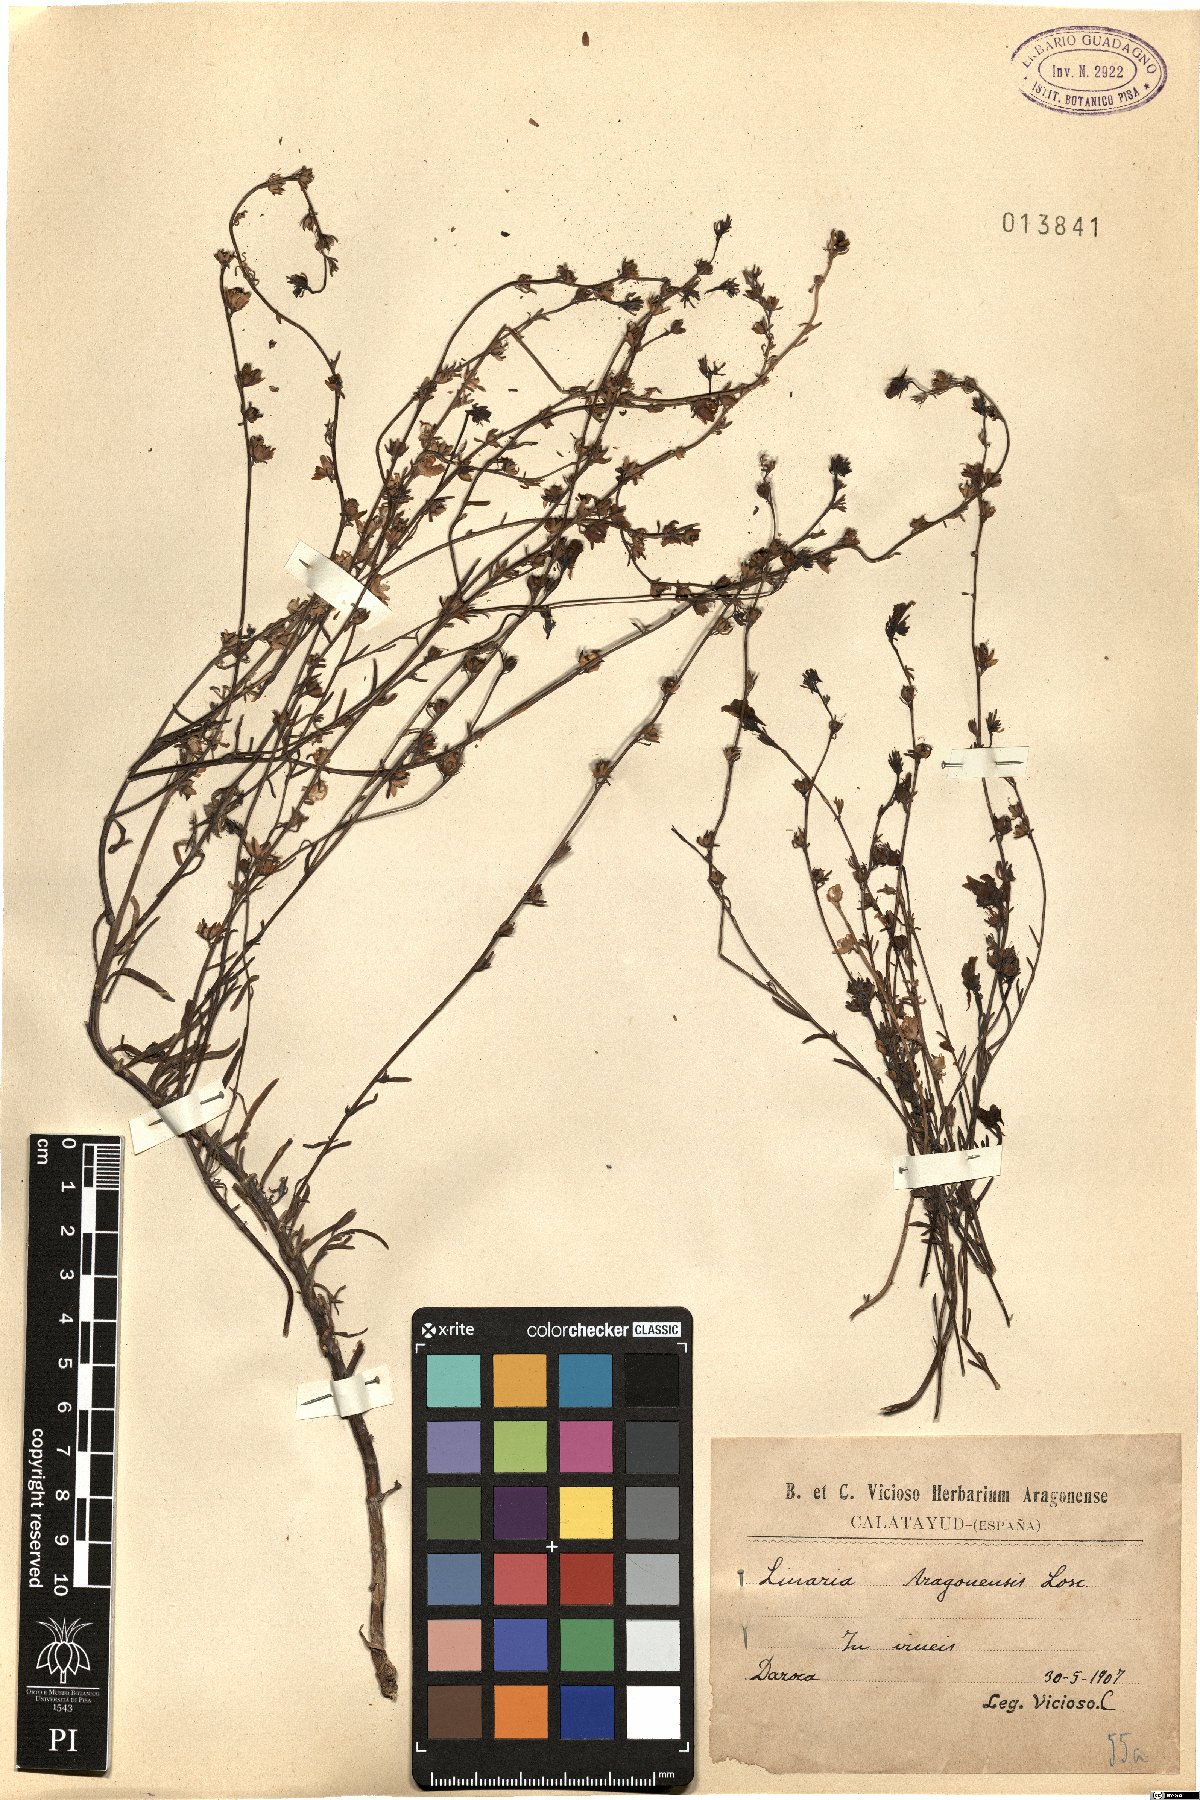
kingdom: Plantae
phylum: Tracheophyta
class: Magnoliopsida
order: Lamiales
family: Plantaginaceae
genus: Linaria
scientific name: Linaria oblongifolia
